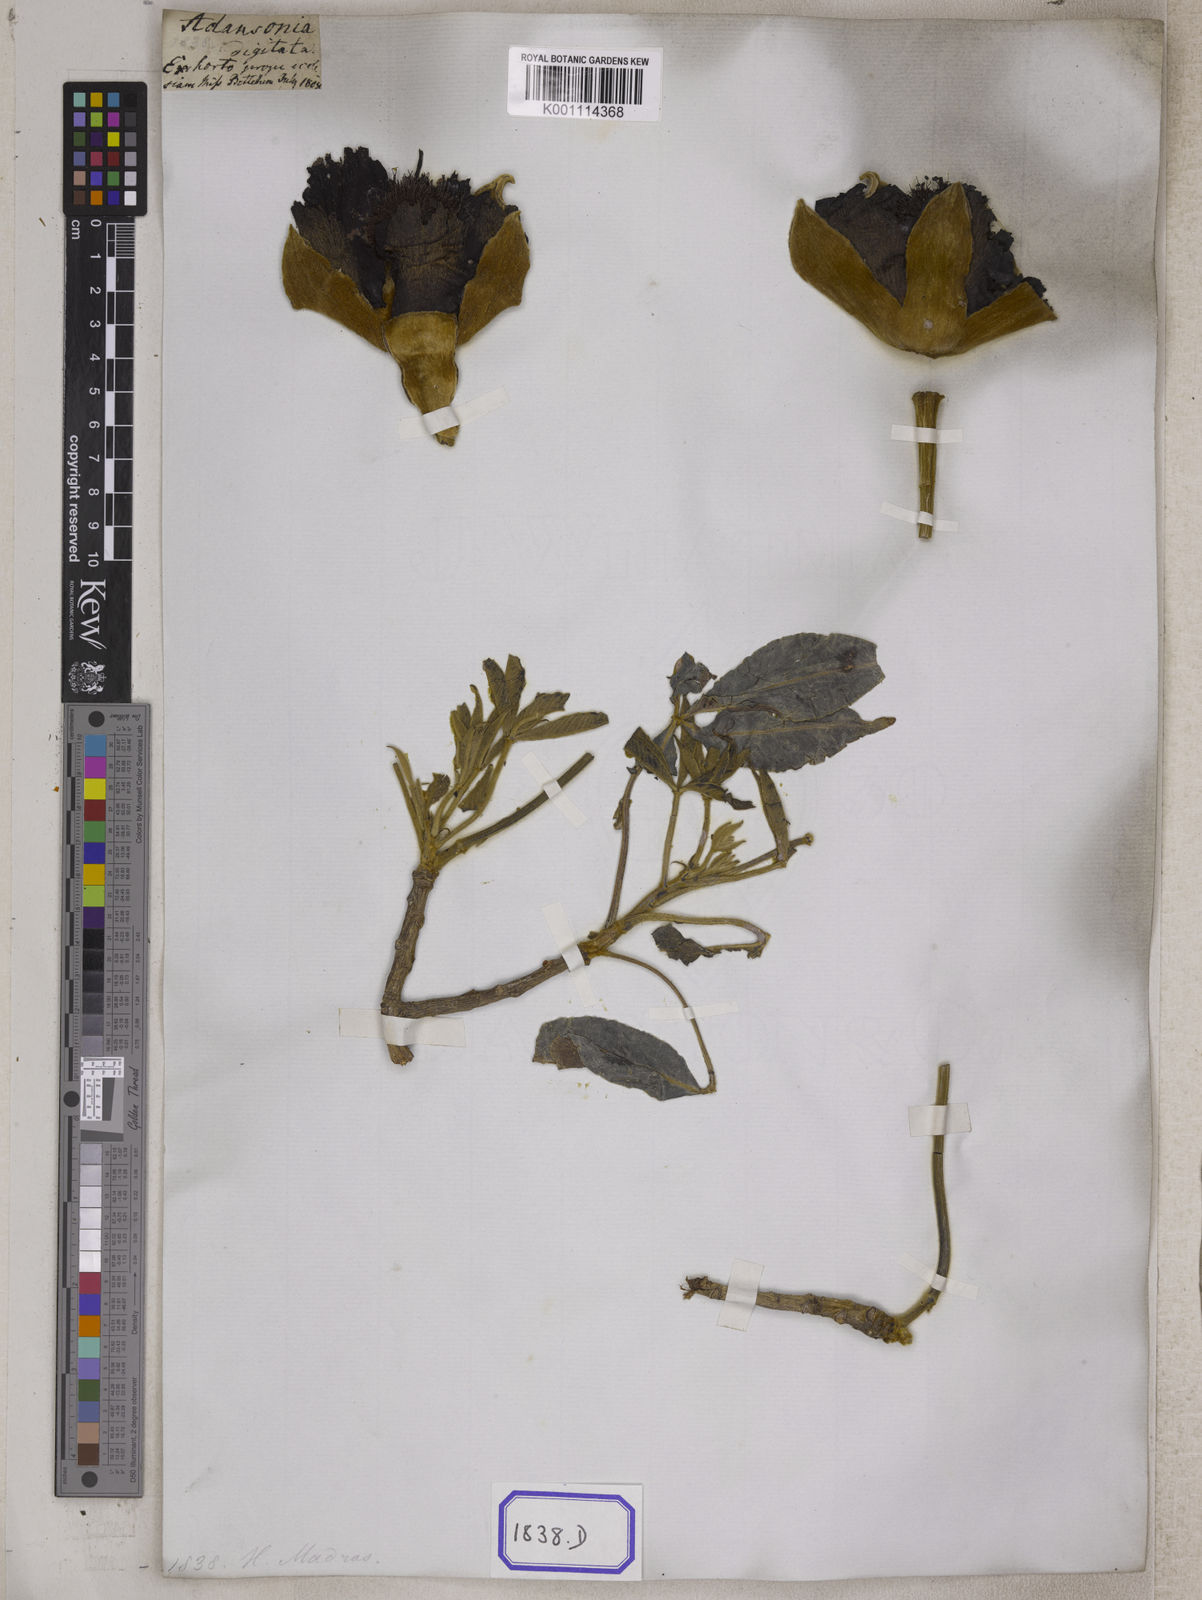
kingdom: Plantae
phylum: Tracheophyta
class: Magnoliopsida
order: Malvales
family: Malvaceae
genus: Adansonia
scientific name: Adansonia digitata
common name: Dead-rat-tree
